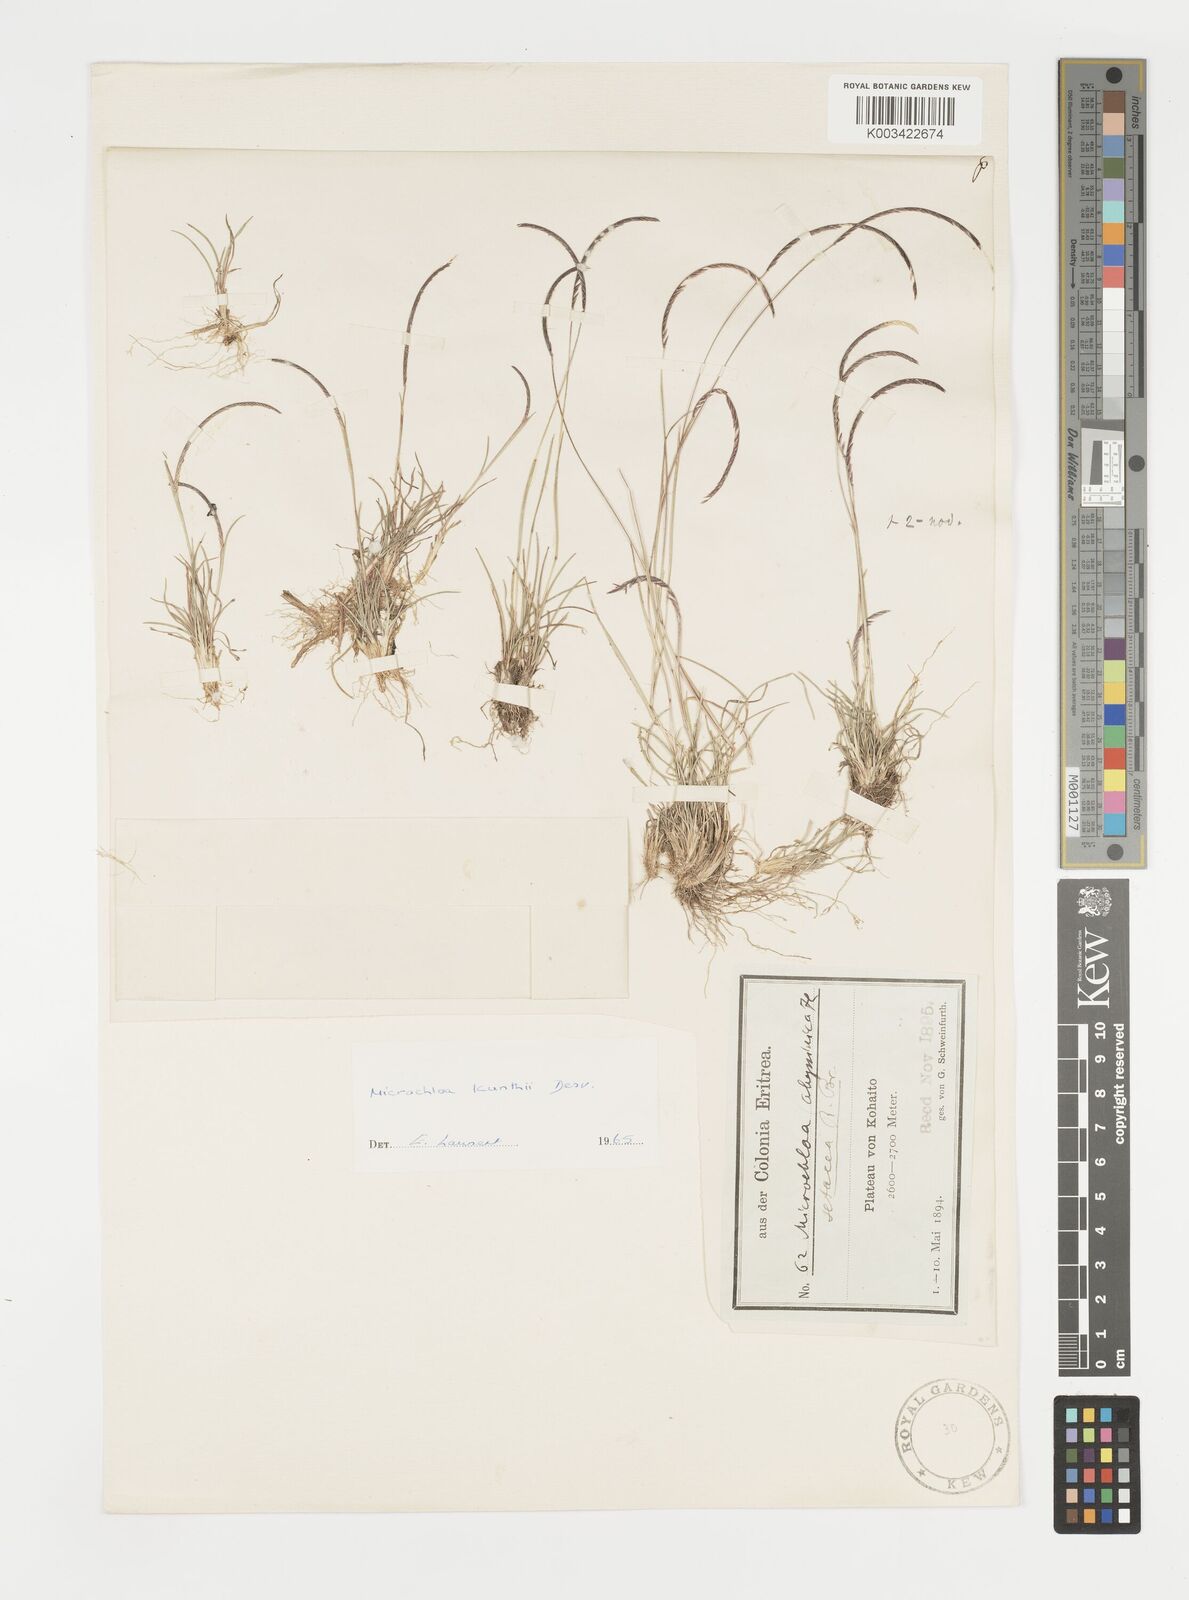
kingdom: Plantae
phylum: Tracheophyta
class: Liliopsida
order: Poales
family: Poaceae
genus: Microchloa
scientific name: Microchloa kunthii
